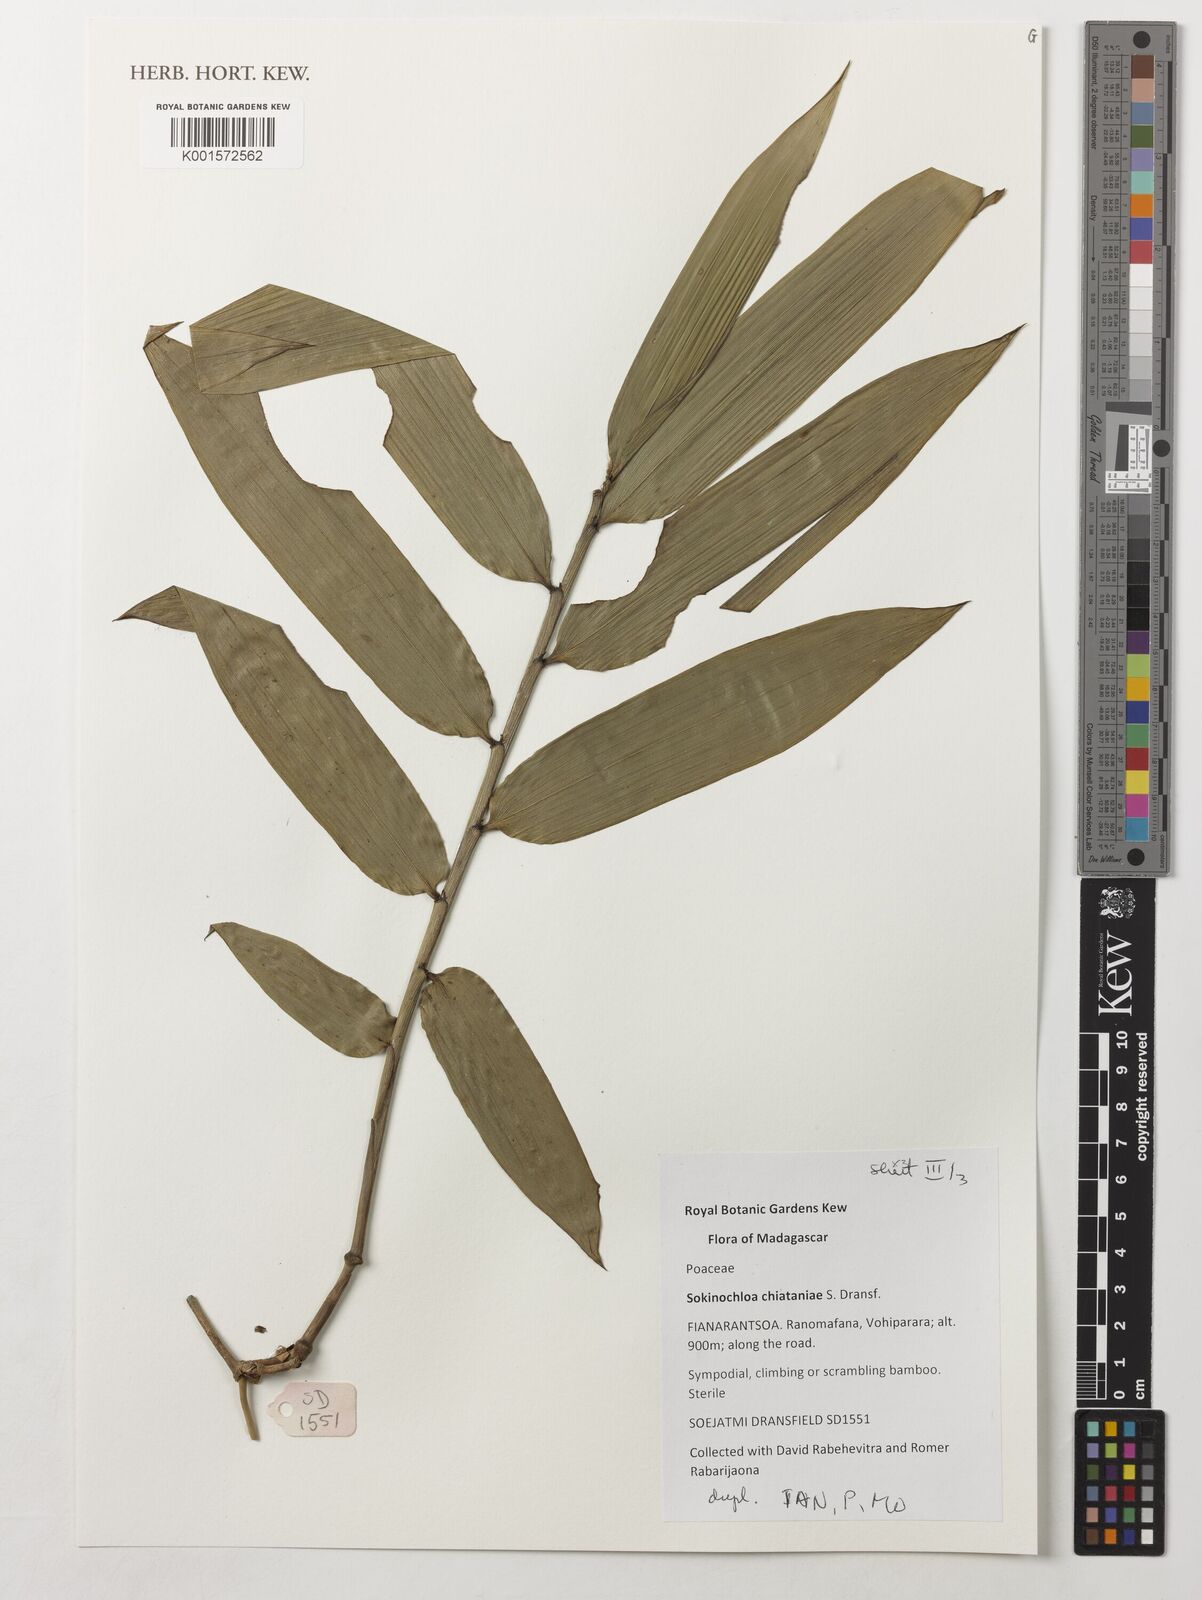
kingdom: Plantae
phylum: Tracheophyta
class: Liliopsida
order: Poales
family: Poaceae
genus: Sokinochloa
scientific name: Sokinochloa chiataniae
